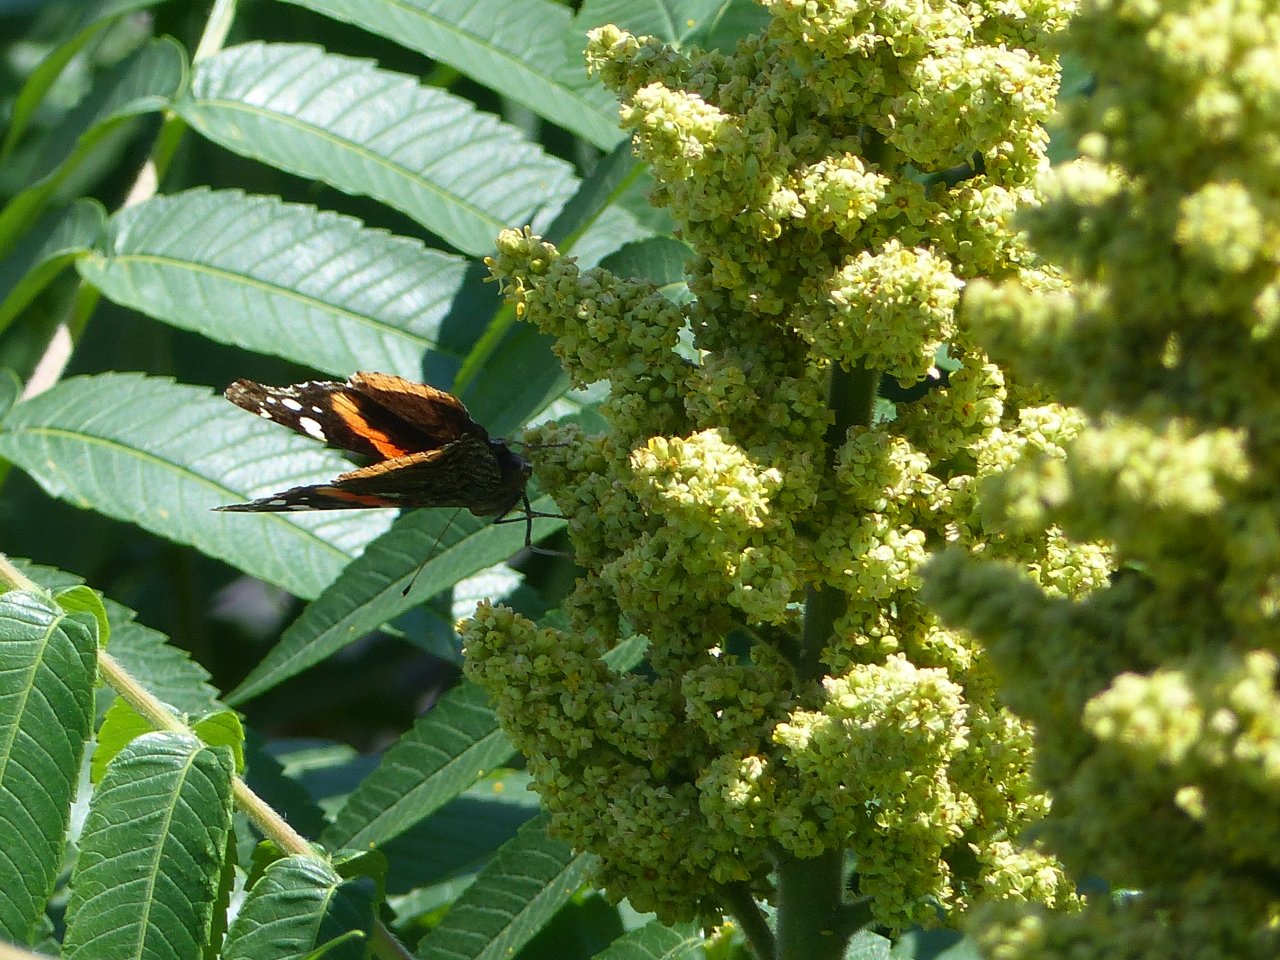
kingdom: Animalia
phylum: Arthropoda
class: Insecta
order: Lepidoptera
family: Nymphalidae
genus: Vanessa
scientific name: Vanessa atalanta
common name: Red Admiral
